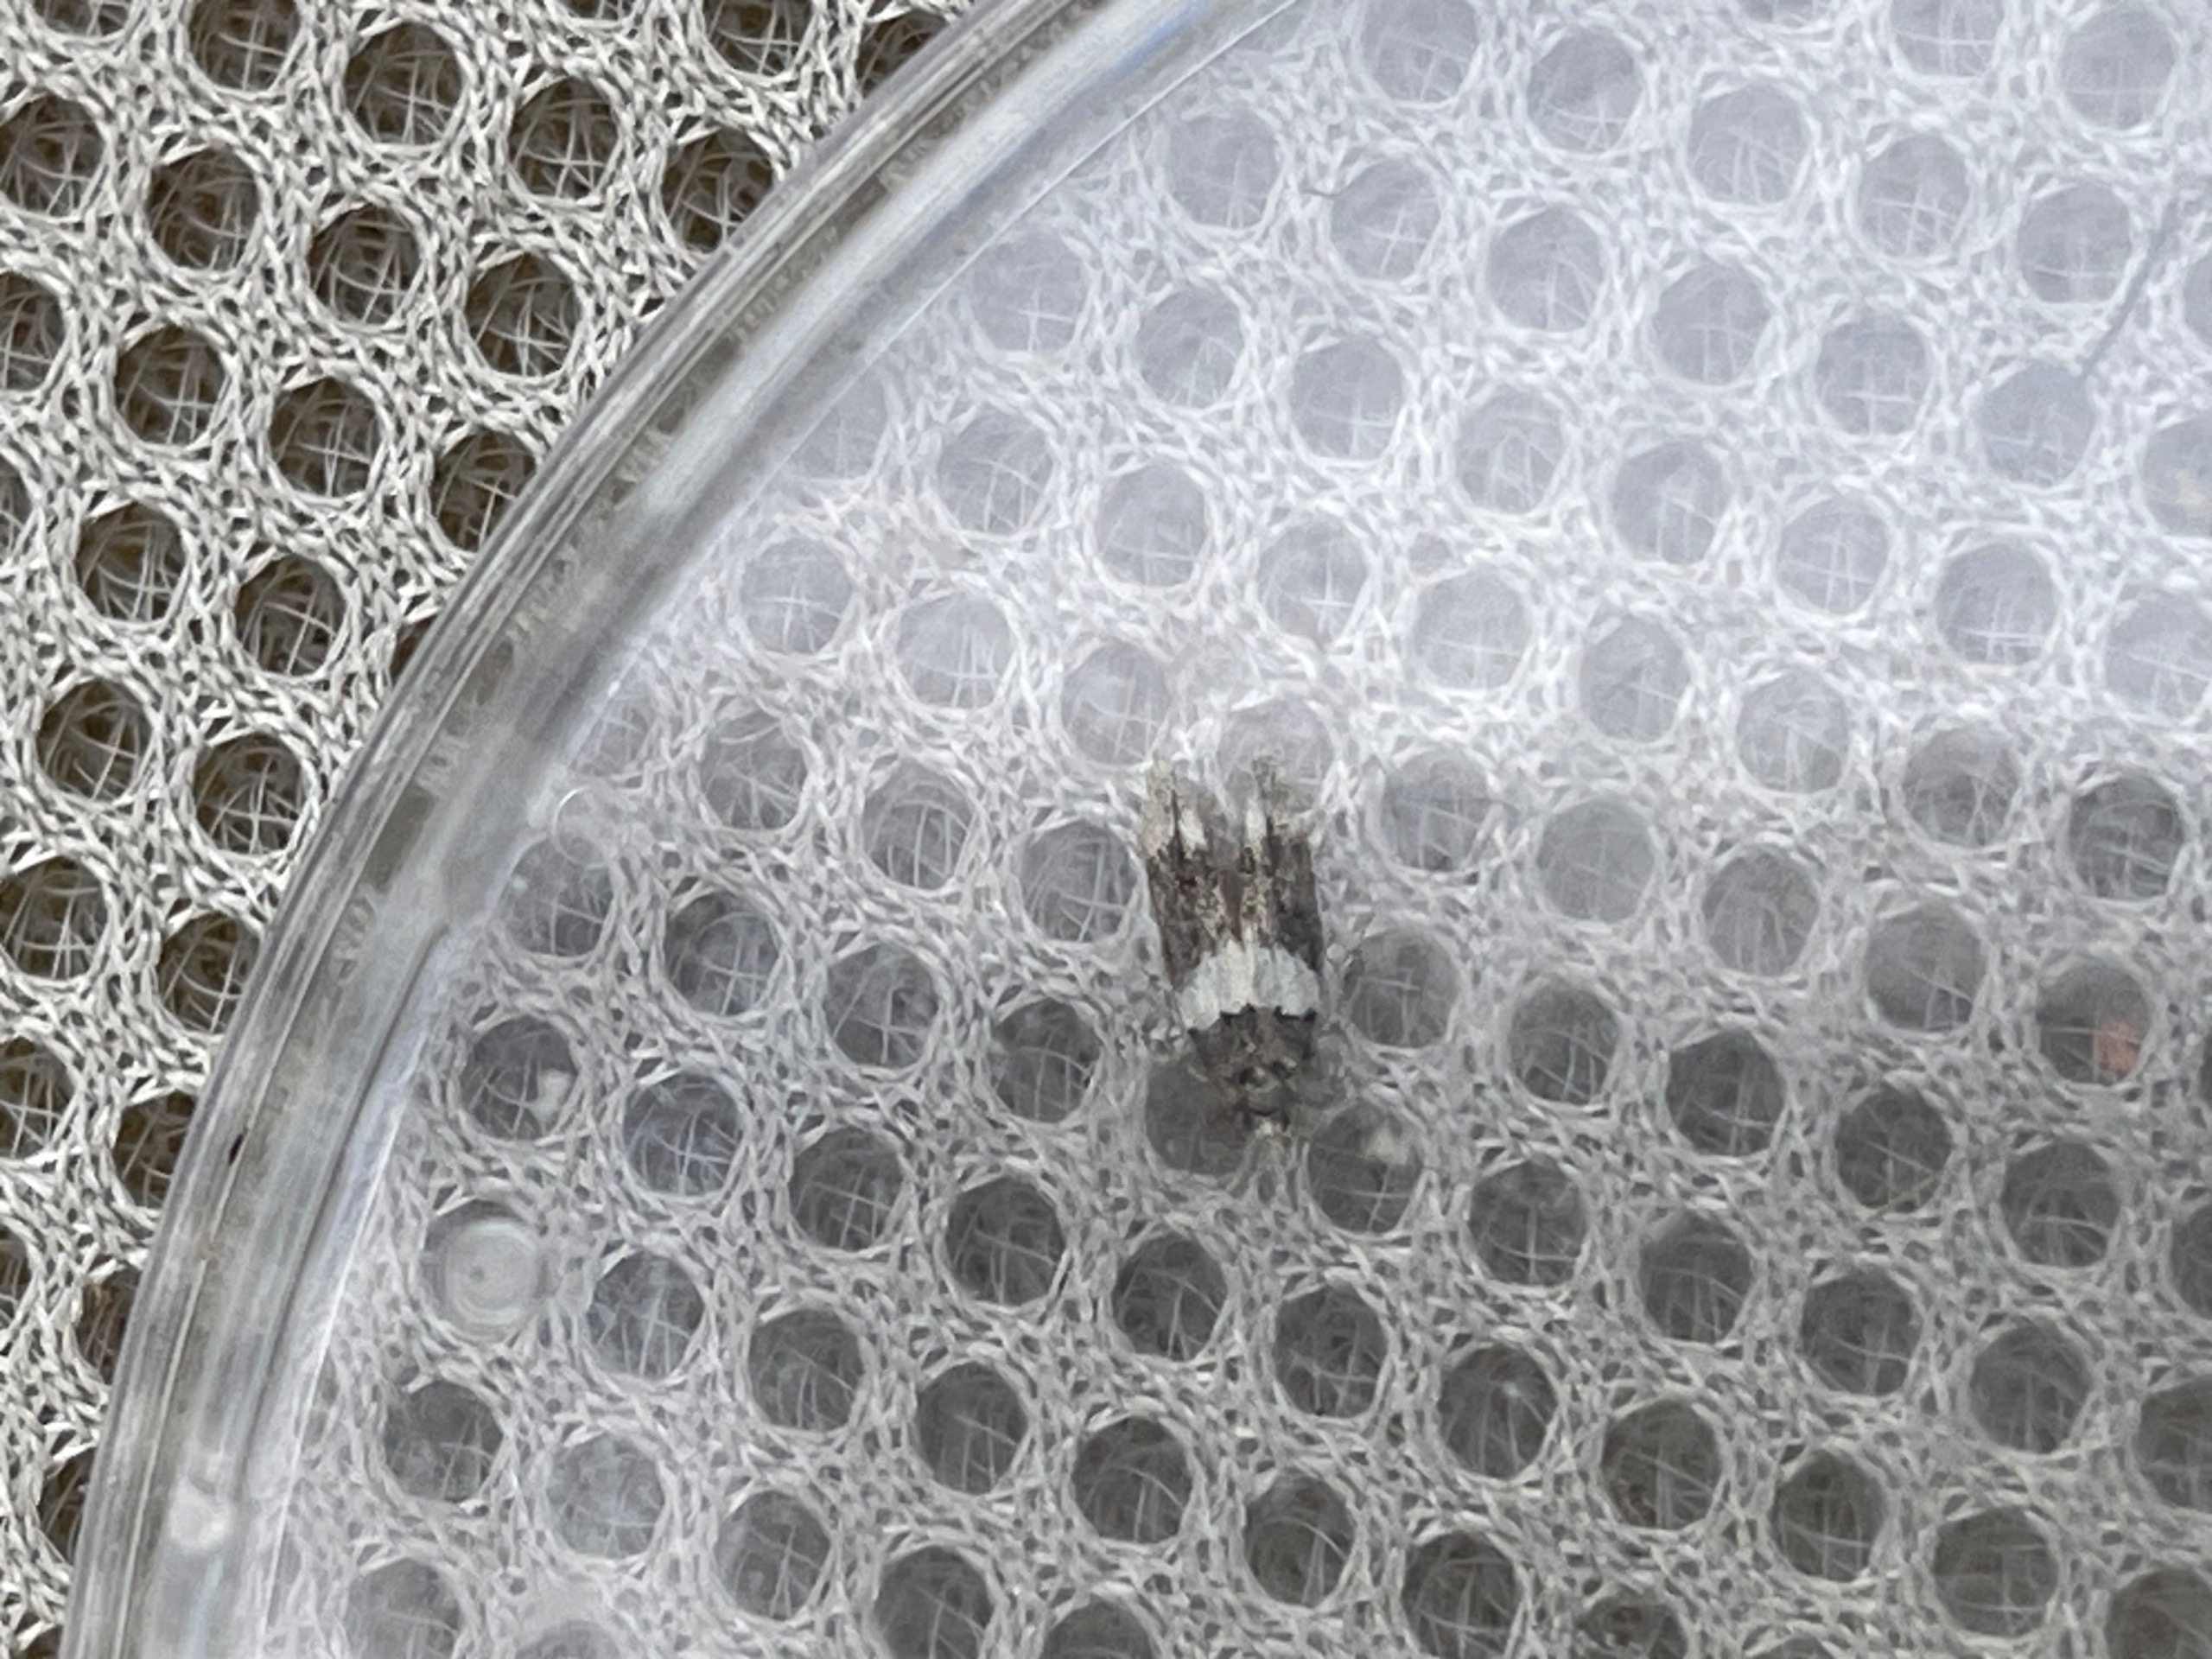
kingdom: Animalia
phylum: Arthropoda
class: Insecta
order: Lepidoptera
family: Gelechiidae
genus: Recurvaria
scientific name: Recurvaria leucatella
